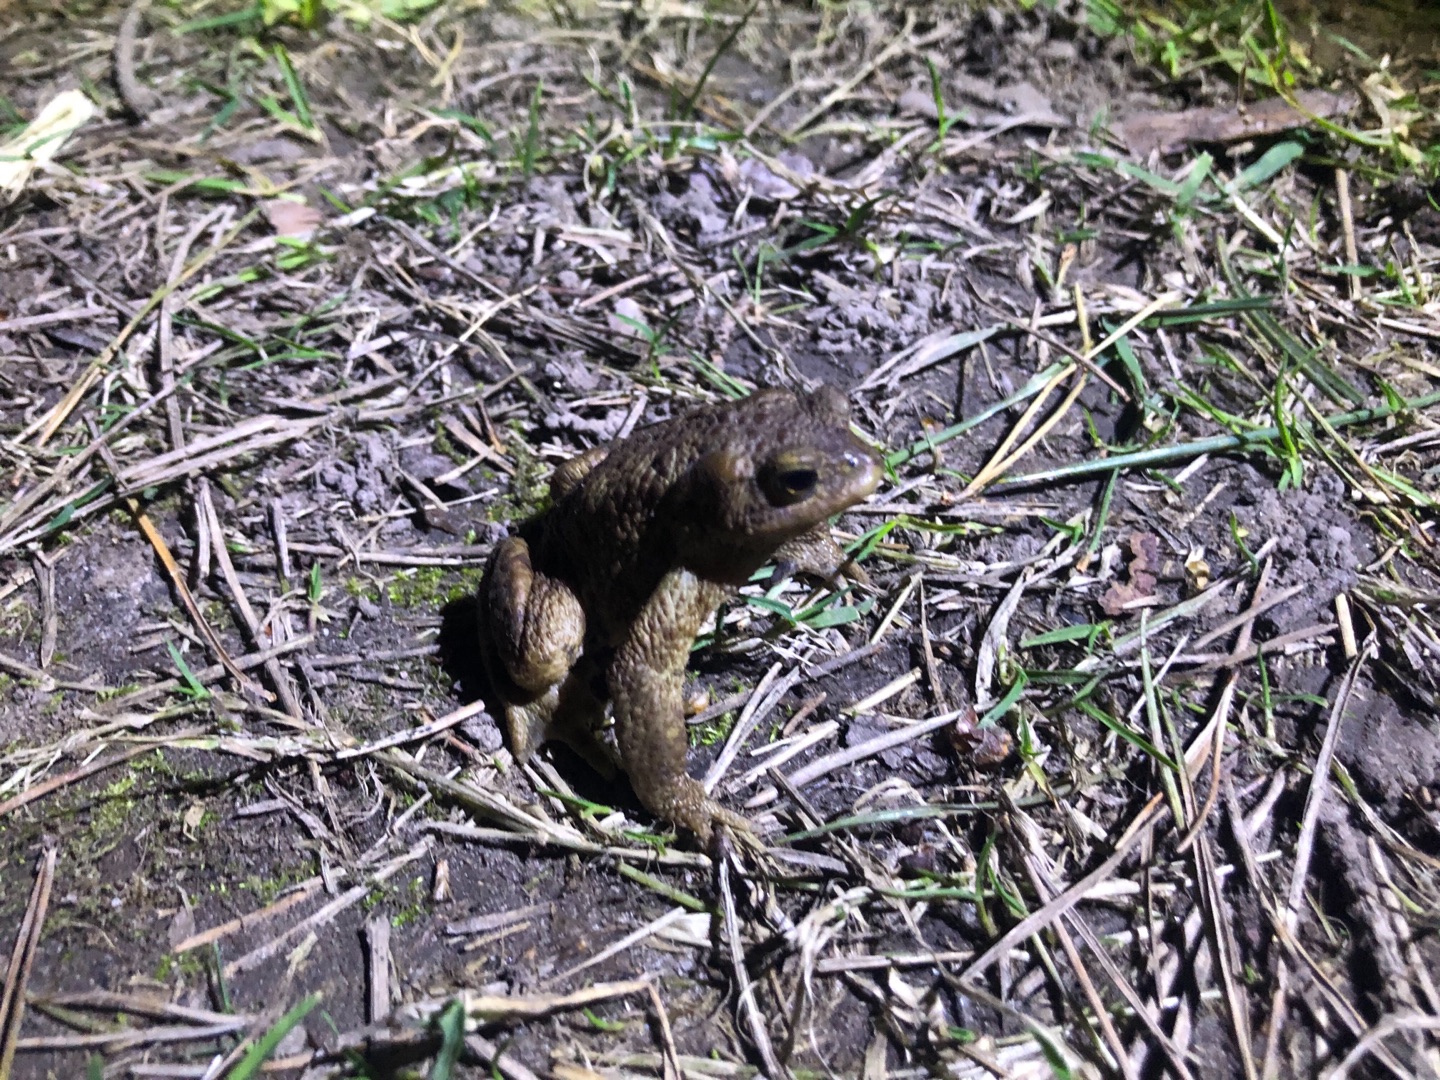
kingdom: Animalia
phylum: Chordata
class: Amphibia
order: Anura
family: Bufonidae
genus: Bufo
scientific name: Bufo bufo
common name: Skrubtudse
